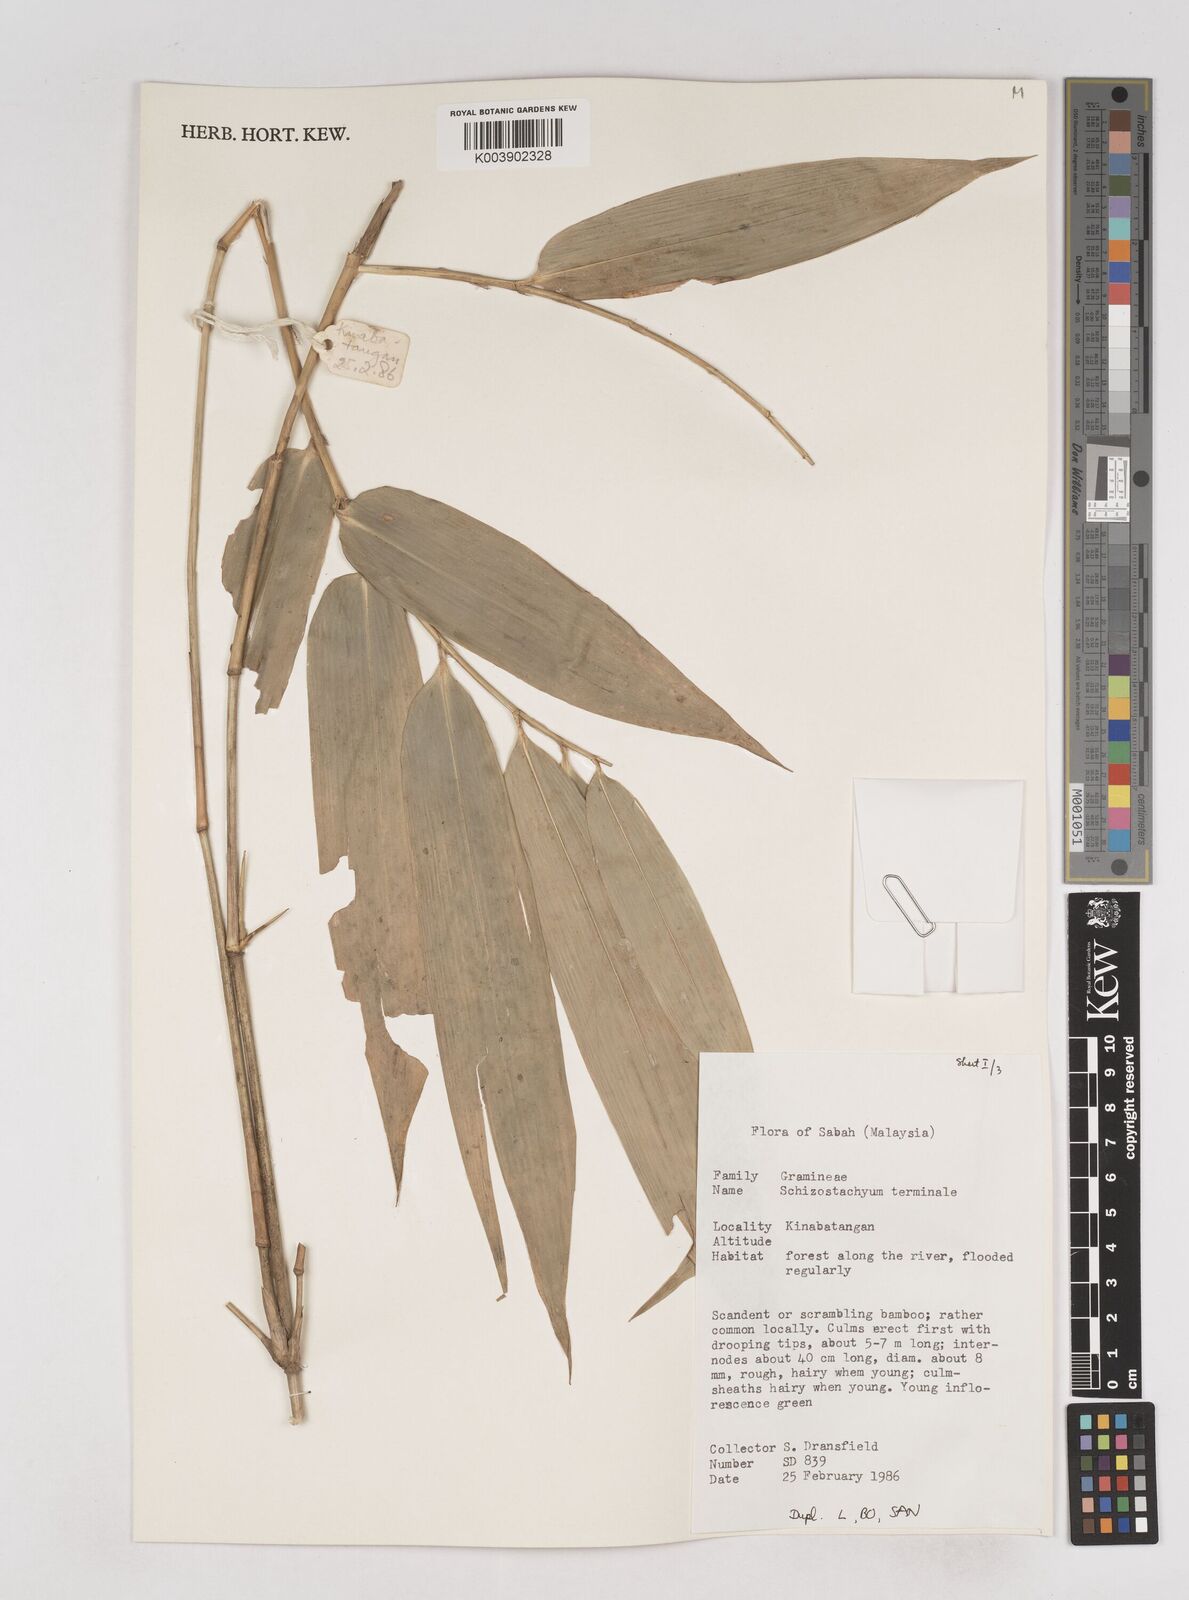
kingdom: Plantae
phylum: Tracheophyta
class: Liliopsida
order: Poales
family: Poaceae
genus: Schizostachyum
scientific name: Schizostachyum terminale
